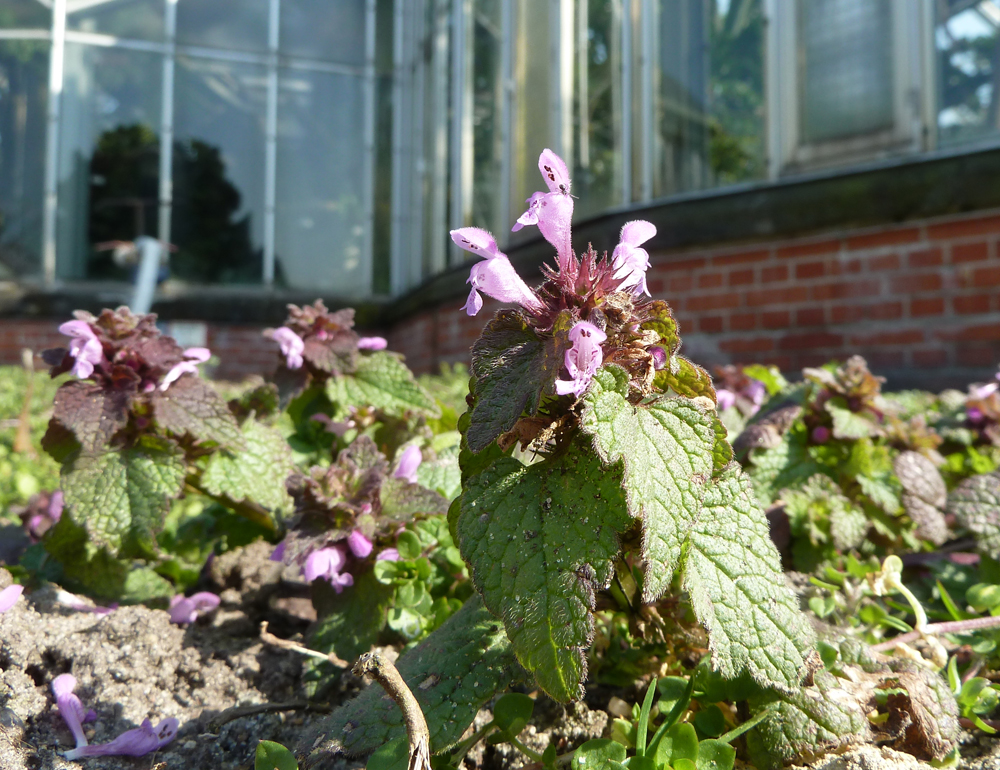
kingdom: Plantae
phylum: Tracheophyta
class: Magnoliopsida
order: Lamiales
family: Lamiaceae
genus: Lamium
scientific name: Lamium purpureum
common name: Red dead-nettle
